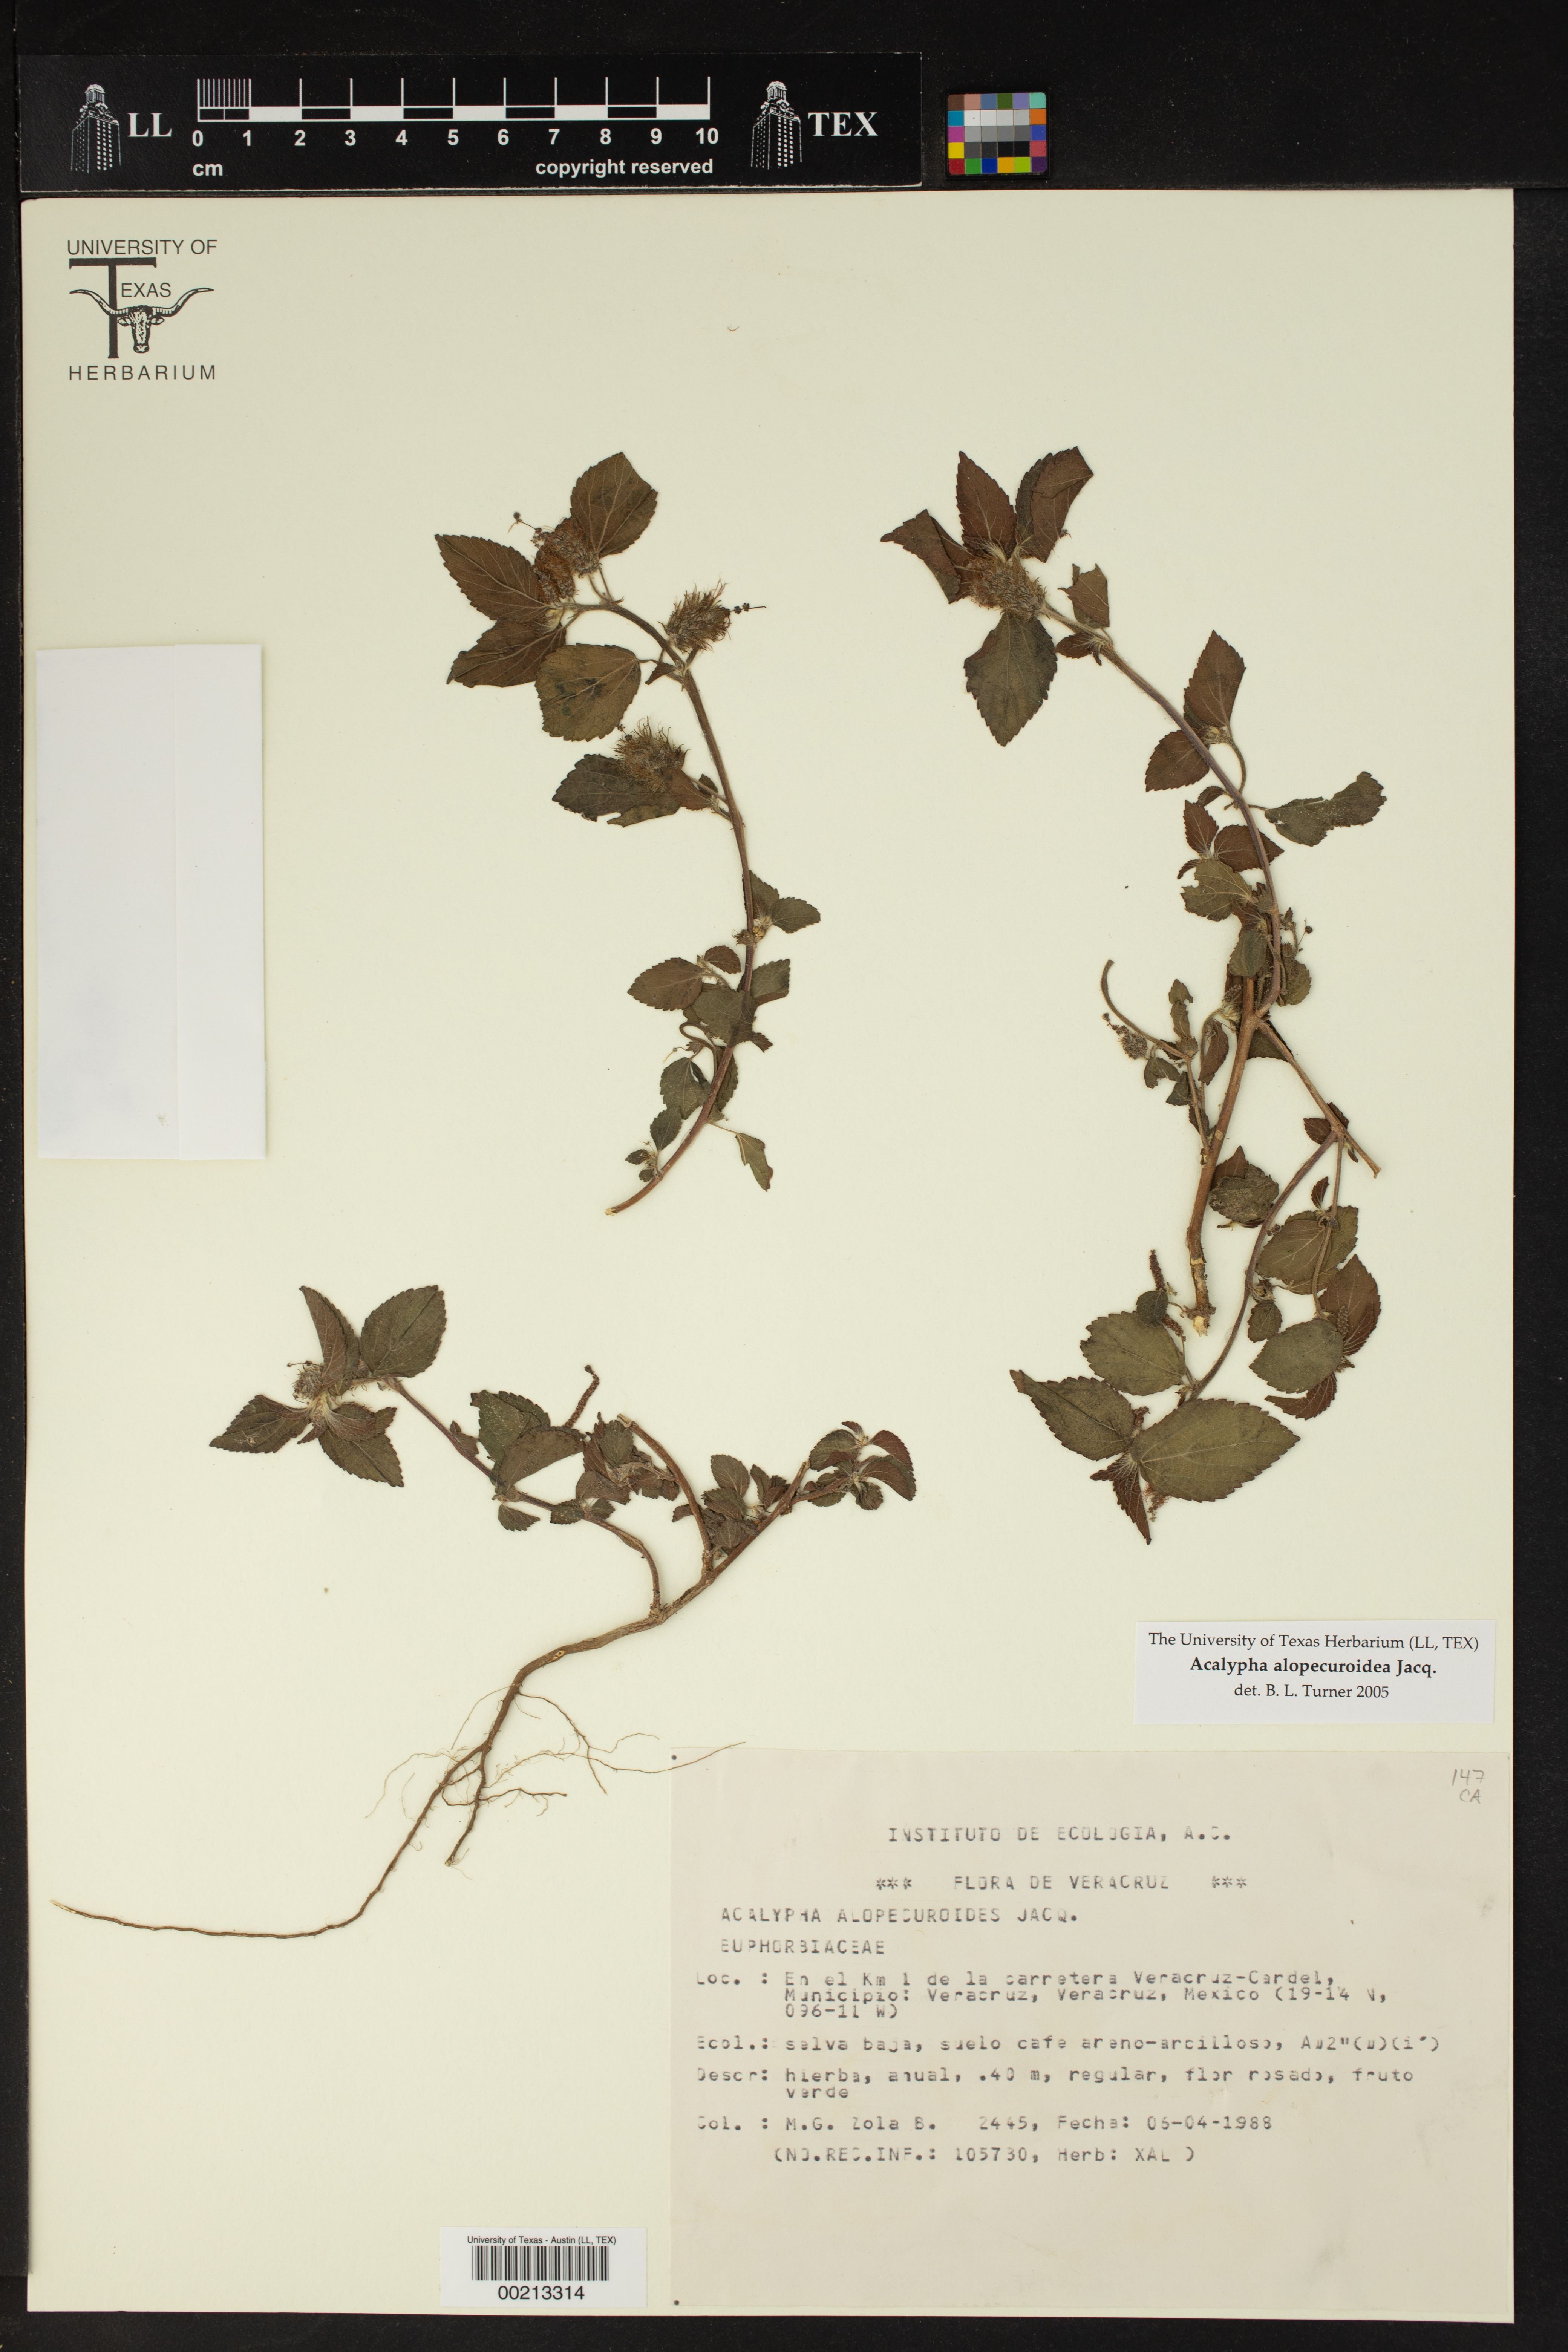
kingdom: Plantae
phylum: Tracheophyta
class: Magnoliopsida
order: Malpighiales
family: Euphorbiaceae
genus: Acalypha
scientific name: Acalypha alopecuroidea
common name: Foxtail copperleaf
